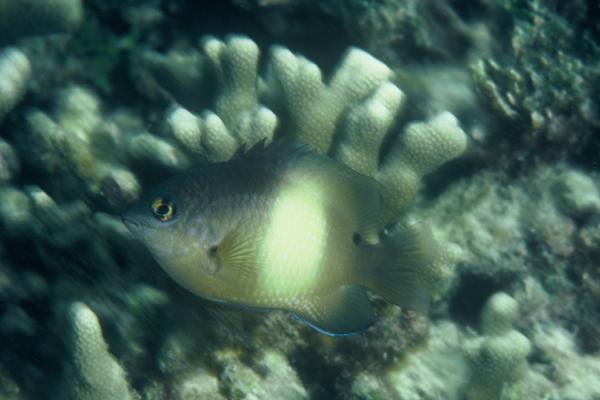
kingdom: Animalia
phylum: Chordata
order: Perciformes
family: Pomacentridae
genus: Stegastes
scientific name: Stegastes nigricans
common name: Dusky gregory
